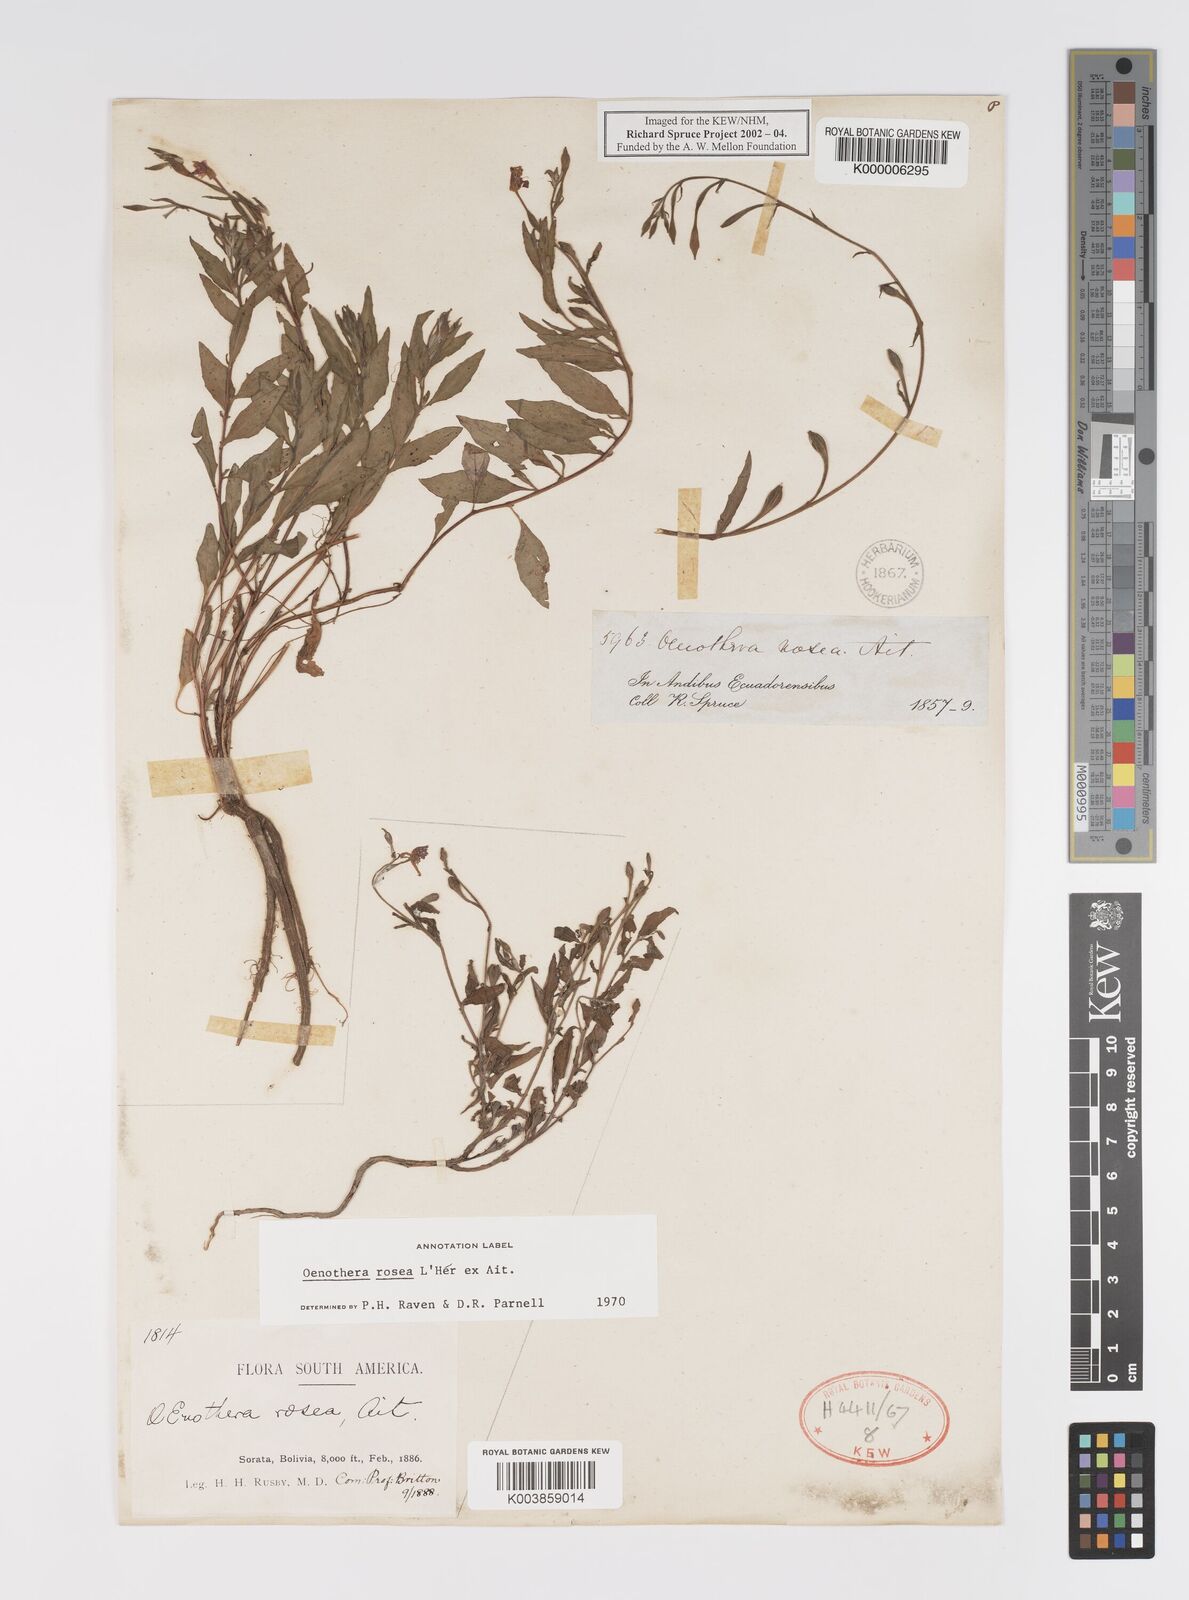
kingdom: Plantae
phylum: Tracheophyta
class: Magnoliopsida
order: Myrtales
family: Onagraceae
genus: Oenothera
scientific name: Oenothera
